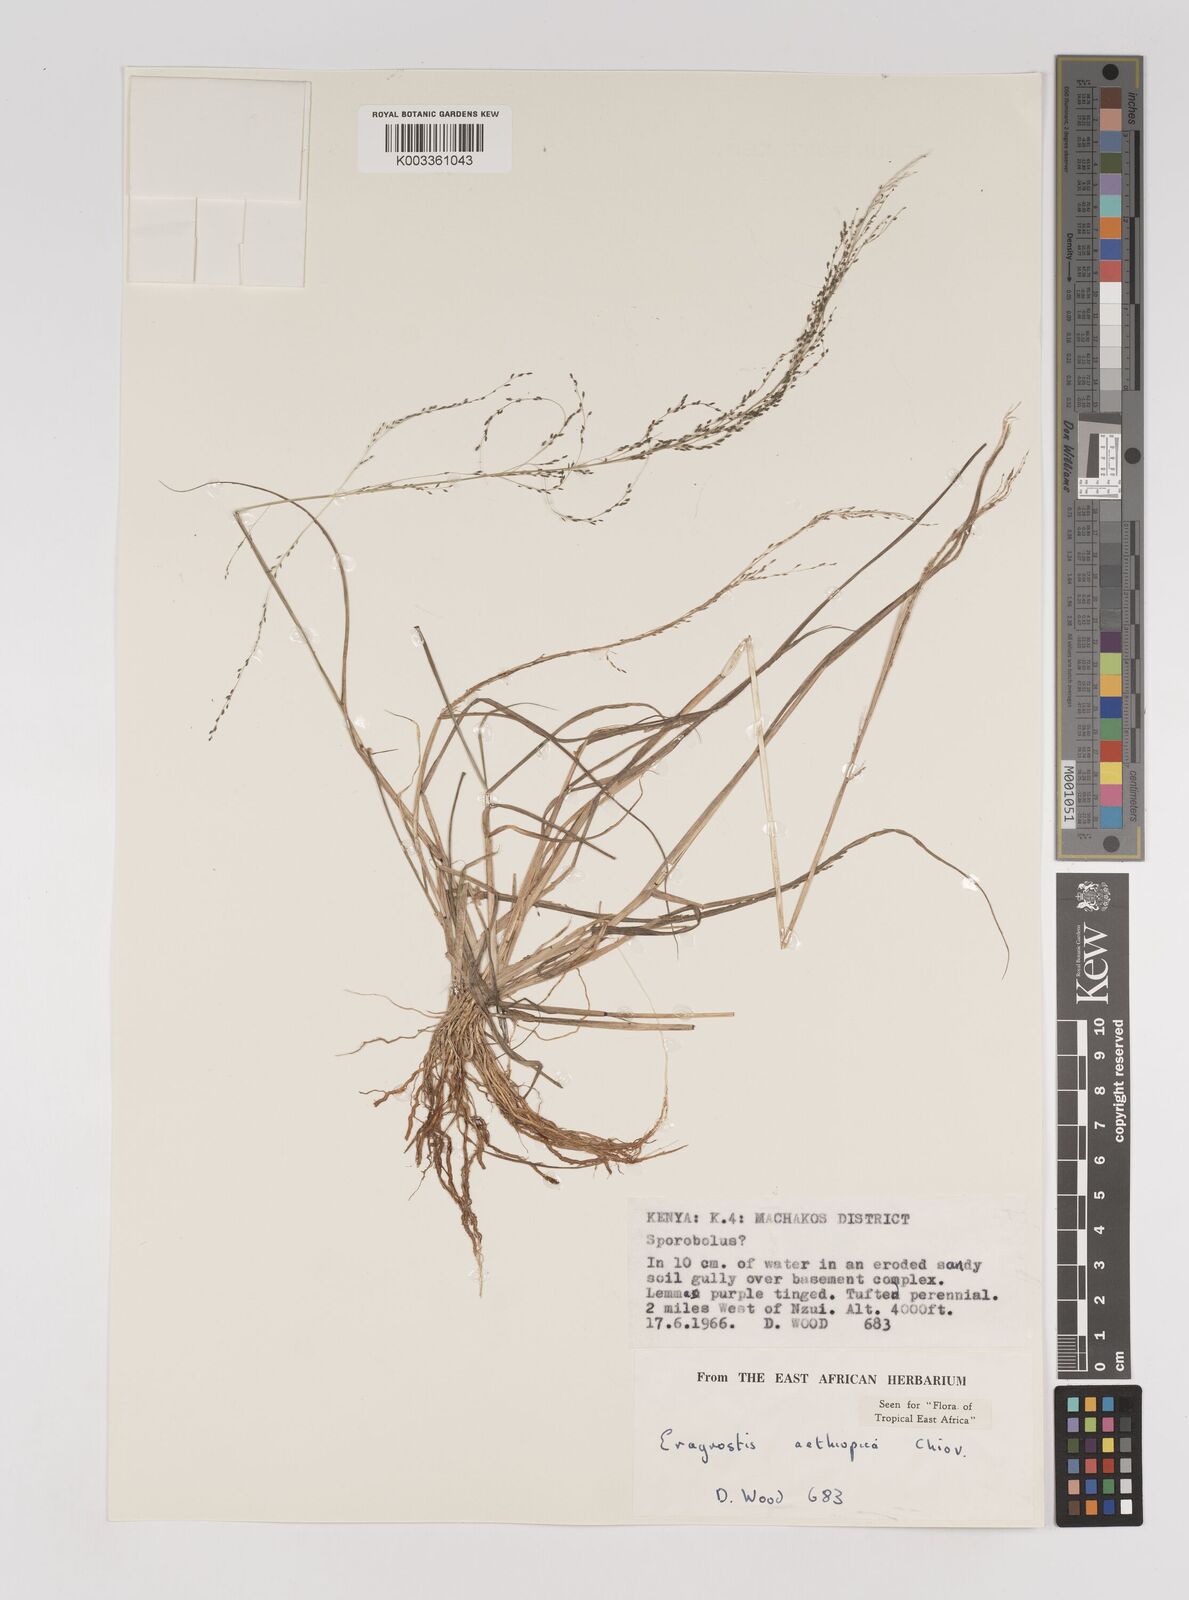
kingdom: Plantae
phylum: Tracheophyta
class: Liliopsida
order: Poales
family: Poaceae
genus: Eragrostis
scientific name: Eragrostis aethiopica
